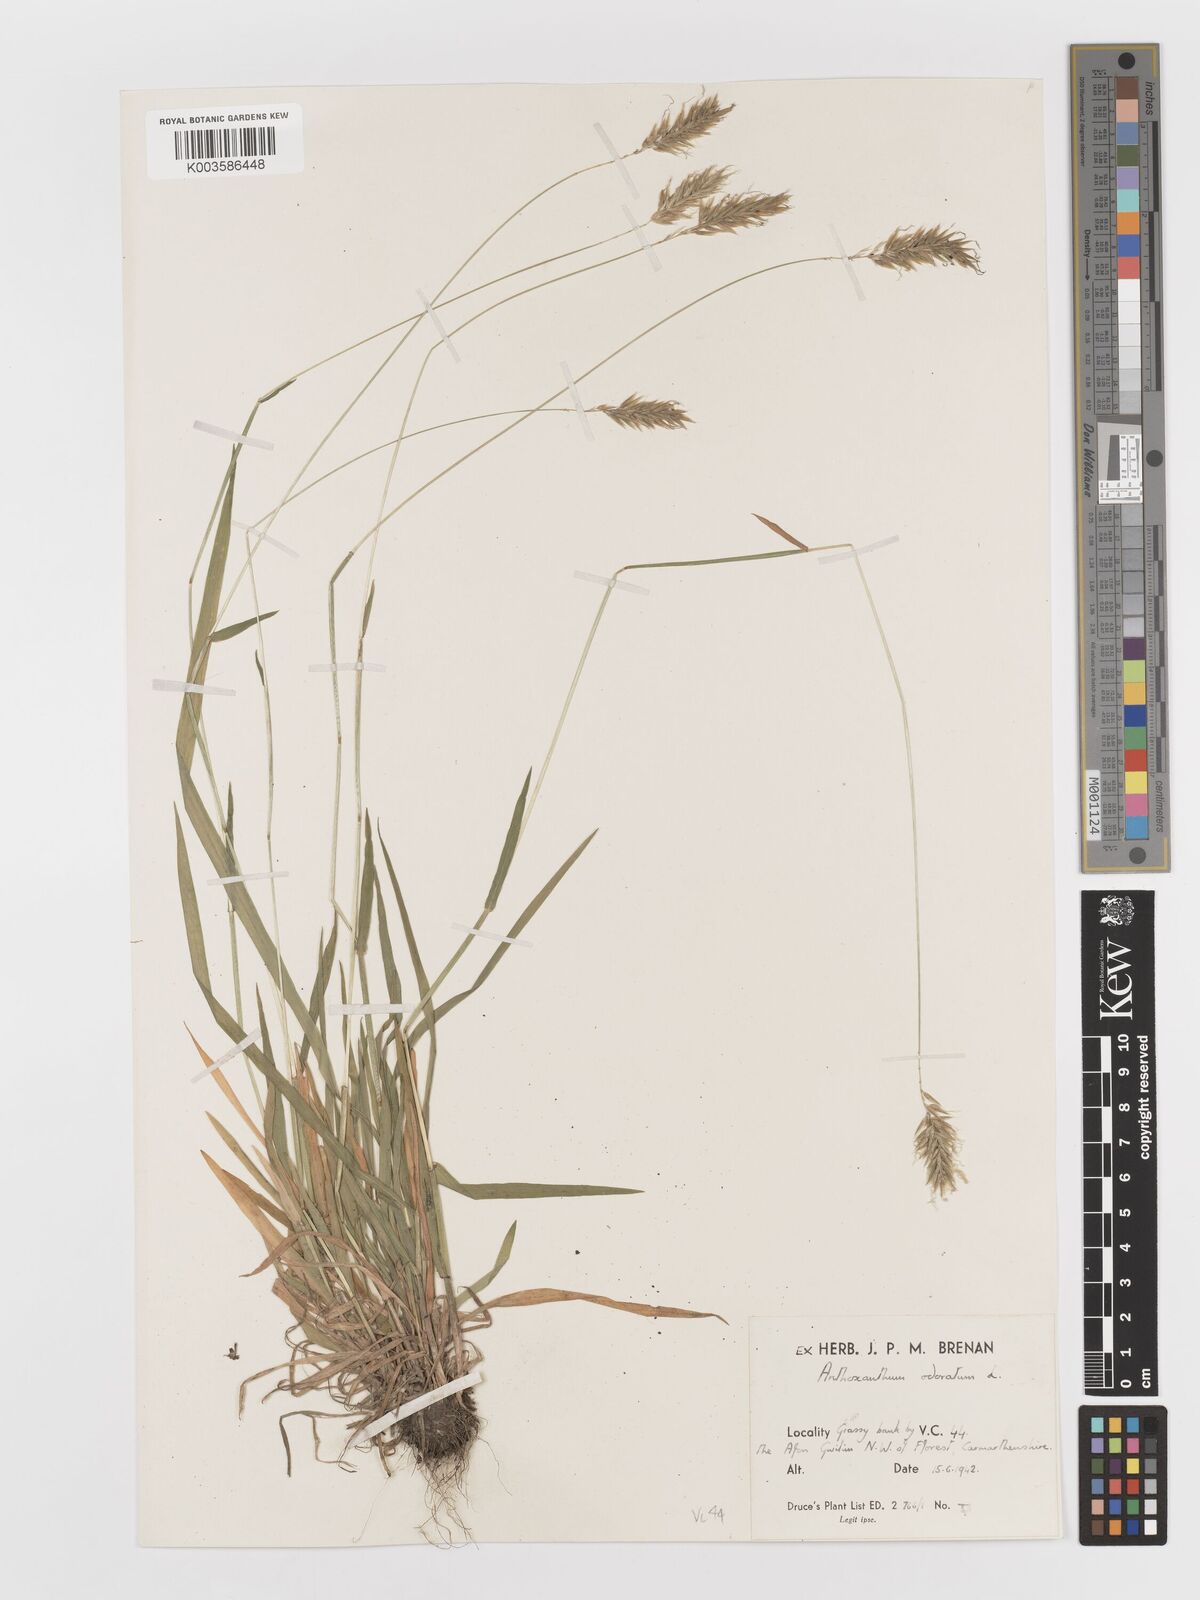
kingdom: Plantae
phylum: Tracheophyta
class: Liliopsida
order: Poales
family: Poaceae
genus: Anthoxanthum
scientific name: Anthoxanthum odoratum
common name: Sweet vernalgrass
